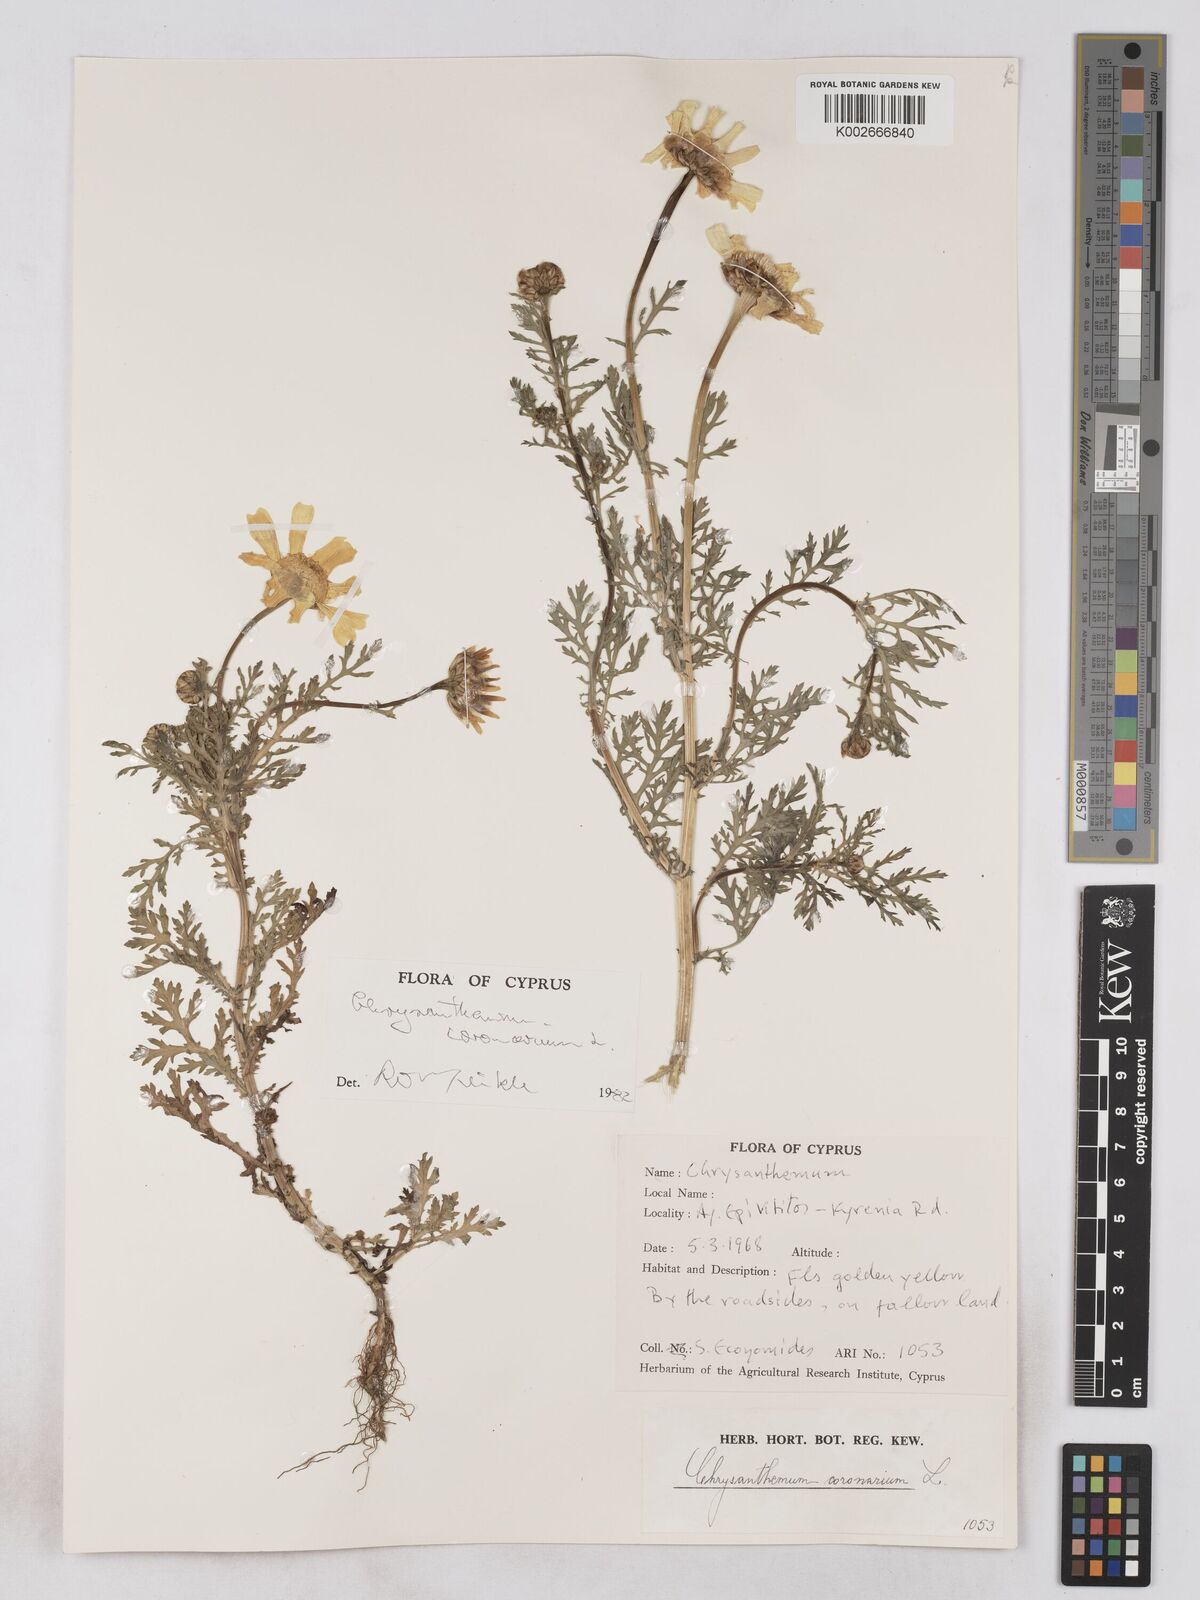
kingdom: Plantae
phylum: Tracheophyta
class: Magnoliopsida
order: Asterales
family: Asteraceae
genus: Glebionis
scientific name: Glebionis coronaria
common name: Crowndaisy
